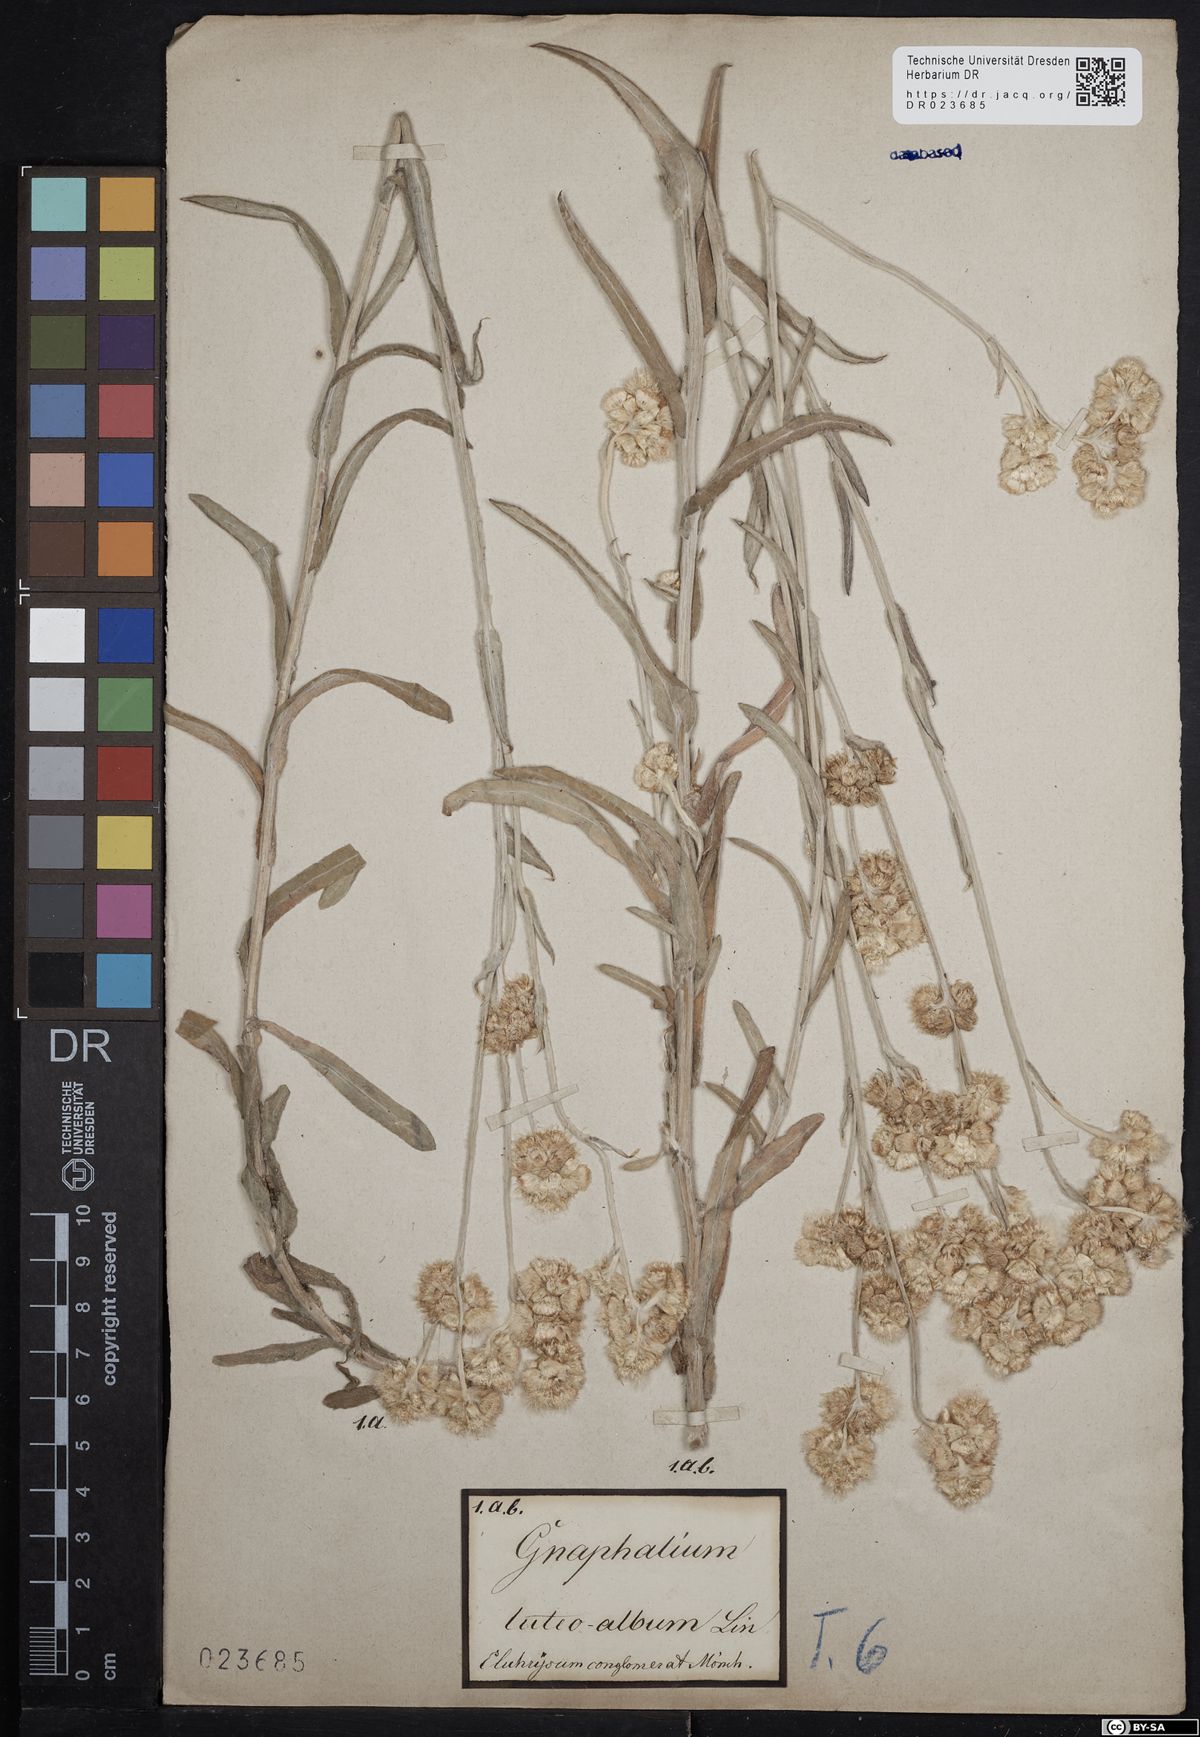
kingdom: Plantae
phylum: Tracheophyta
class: Magnoliopsida
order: Asterales
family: Asteraceae
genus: Helichrysum
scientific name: Helichrysum luteoalbum
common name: Daisy
